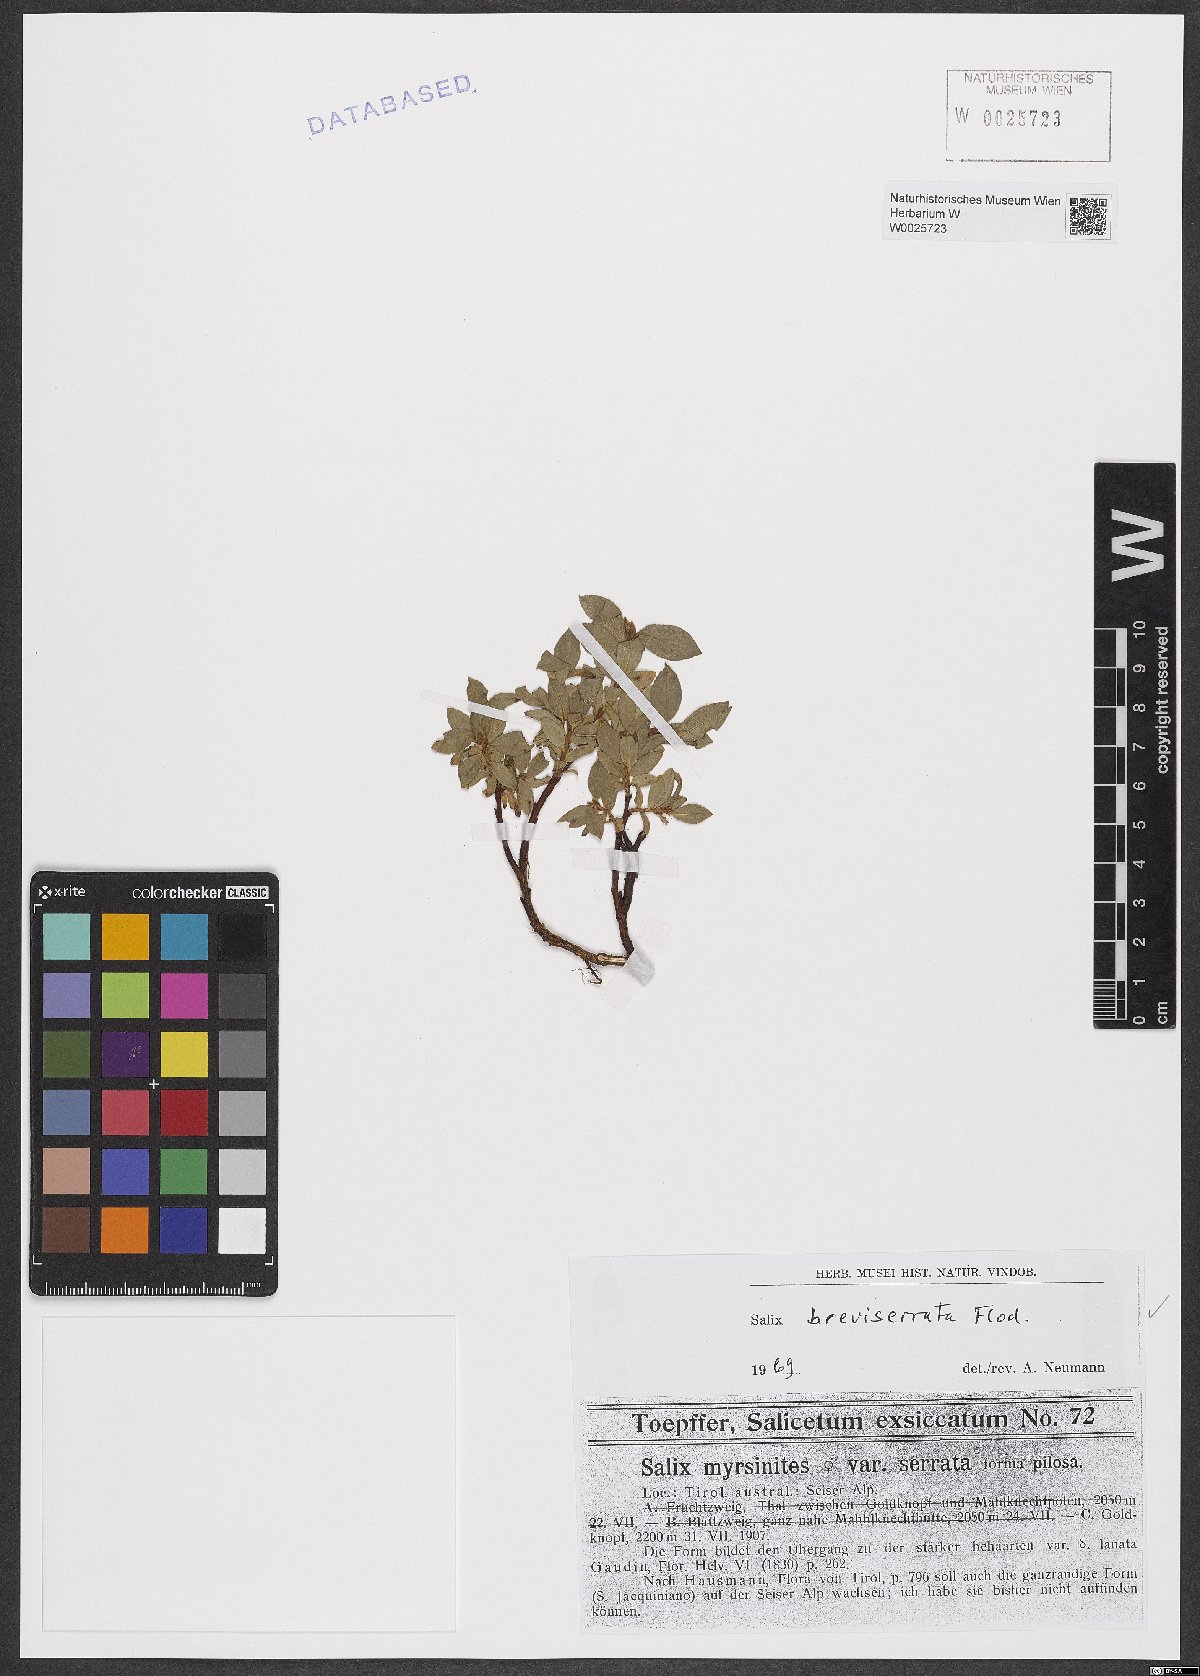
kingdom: Plantae
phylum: Tracheophyta
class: Magnoliopsida
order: Malpighiales
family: Salicaceae
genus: Salix
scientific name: Salix breviserrata
